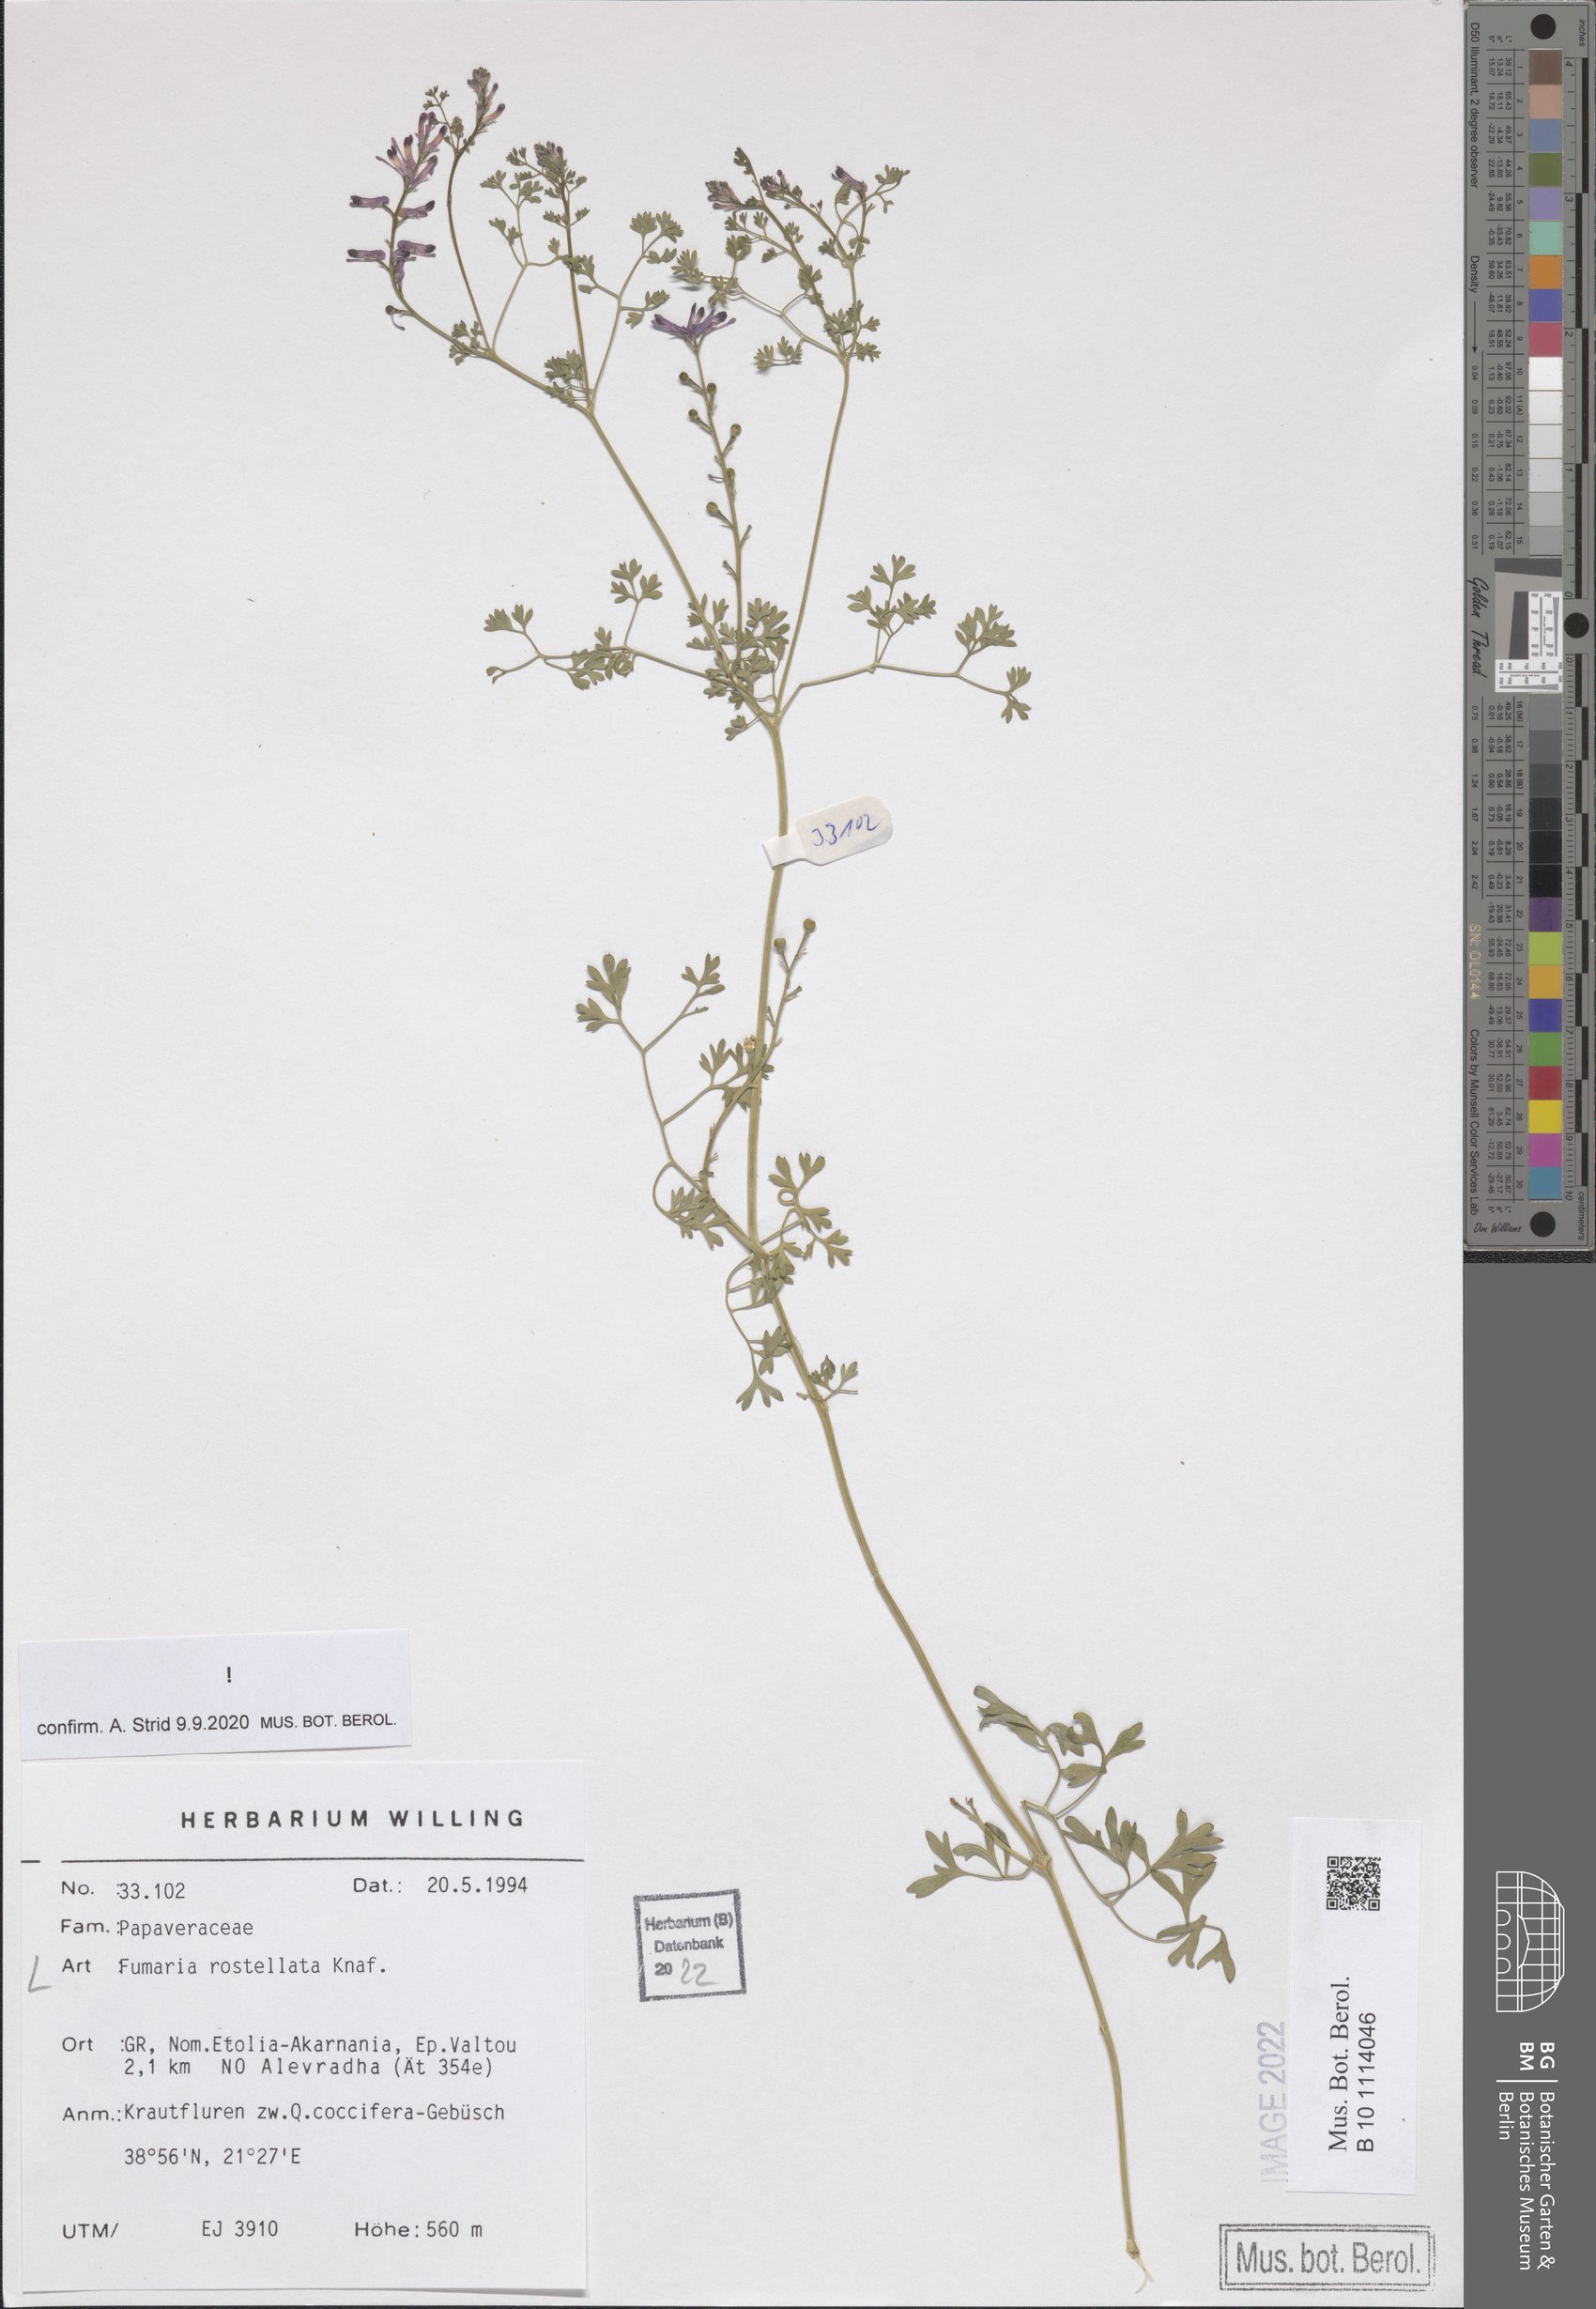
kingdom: Plantae
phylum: Tracheophyta
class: Magnoliopsida
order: Ranunculales
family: Papaveraceae
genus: Fumaria
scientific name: Fumaria rostellata
